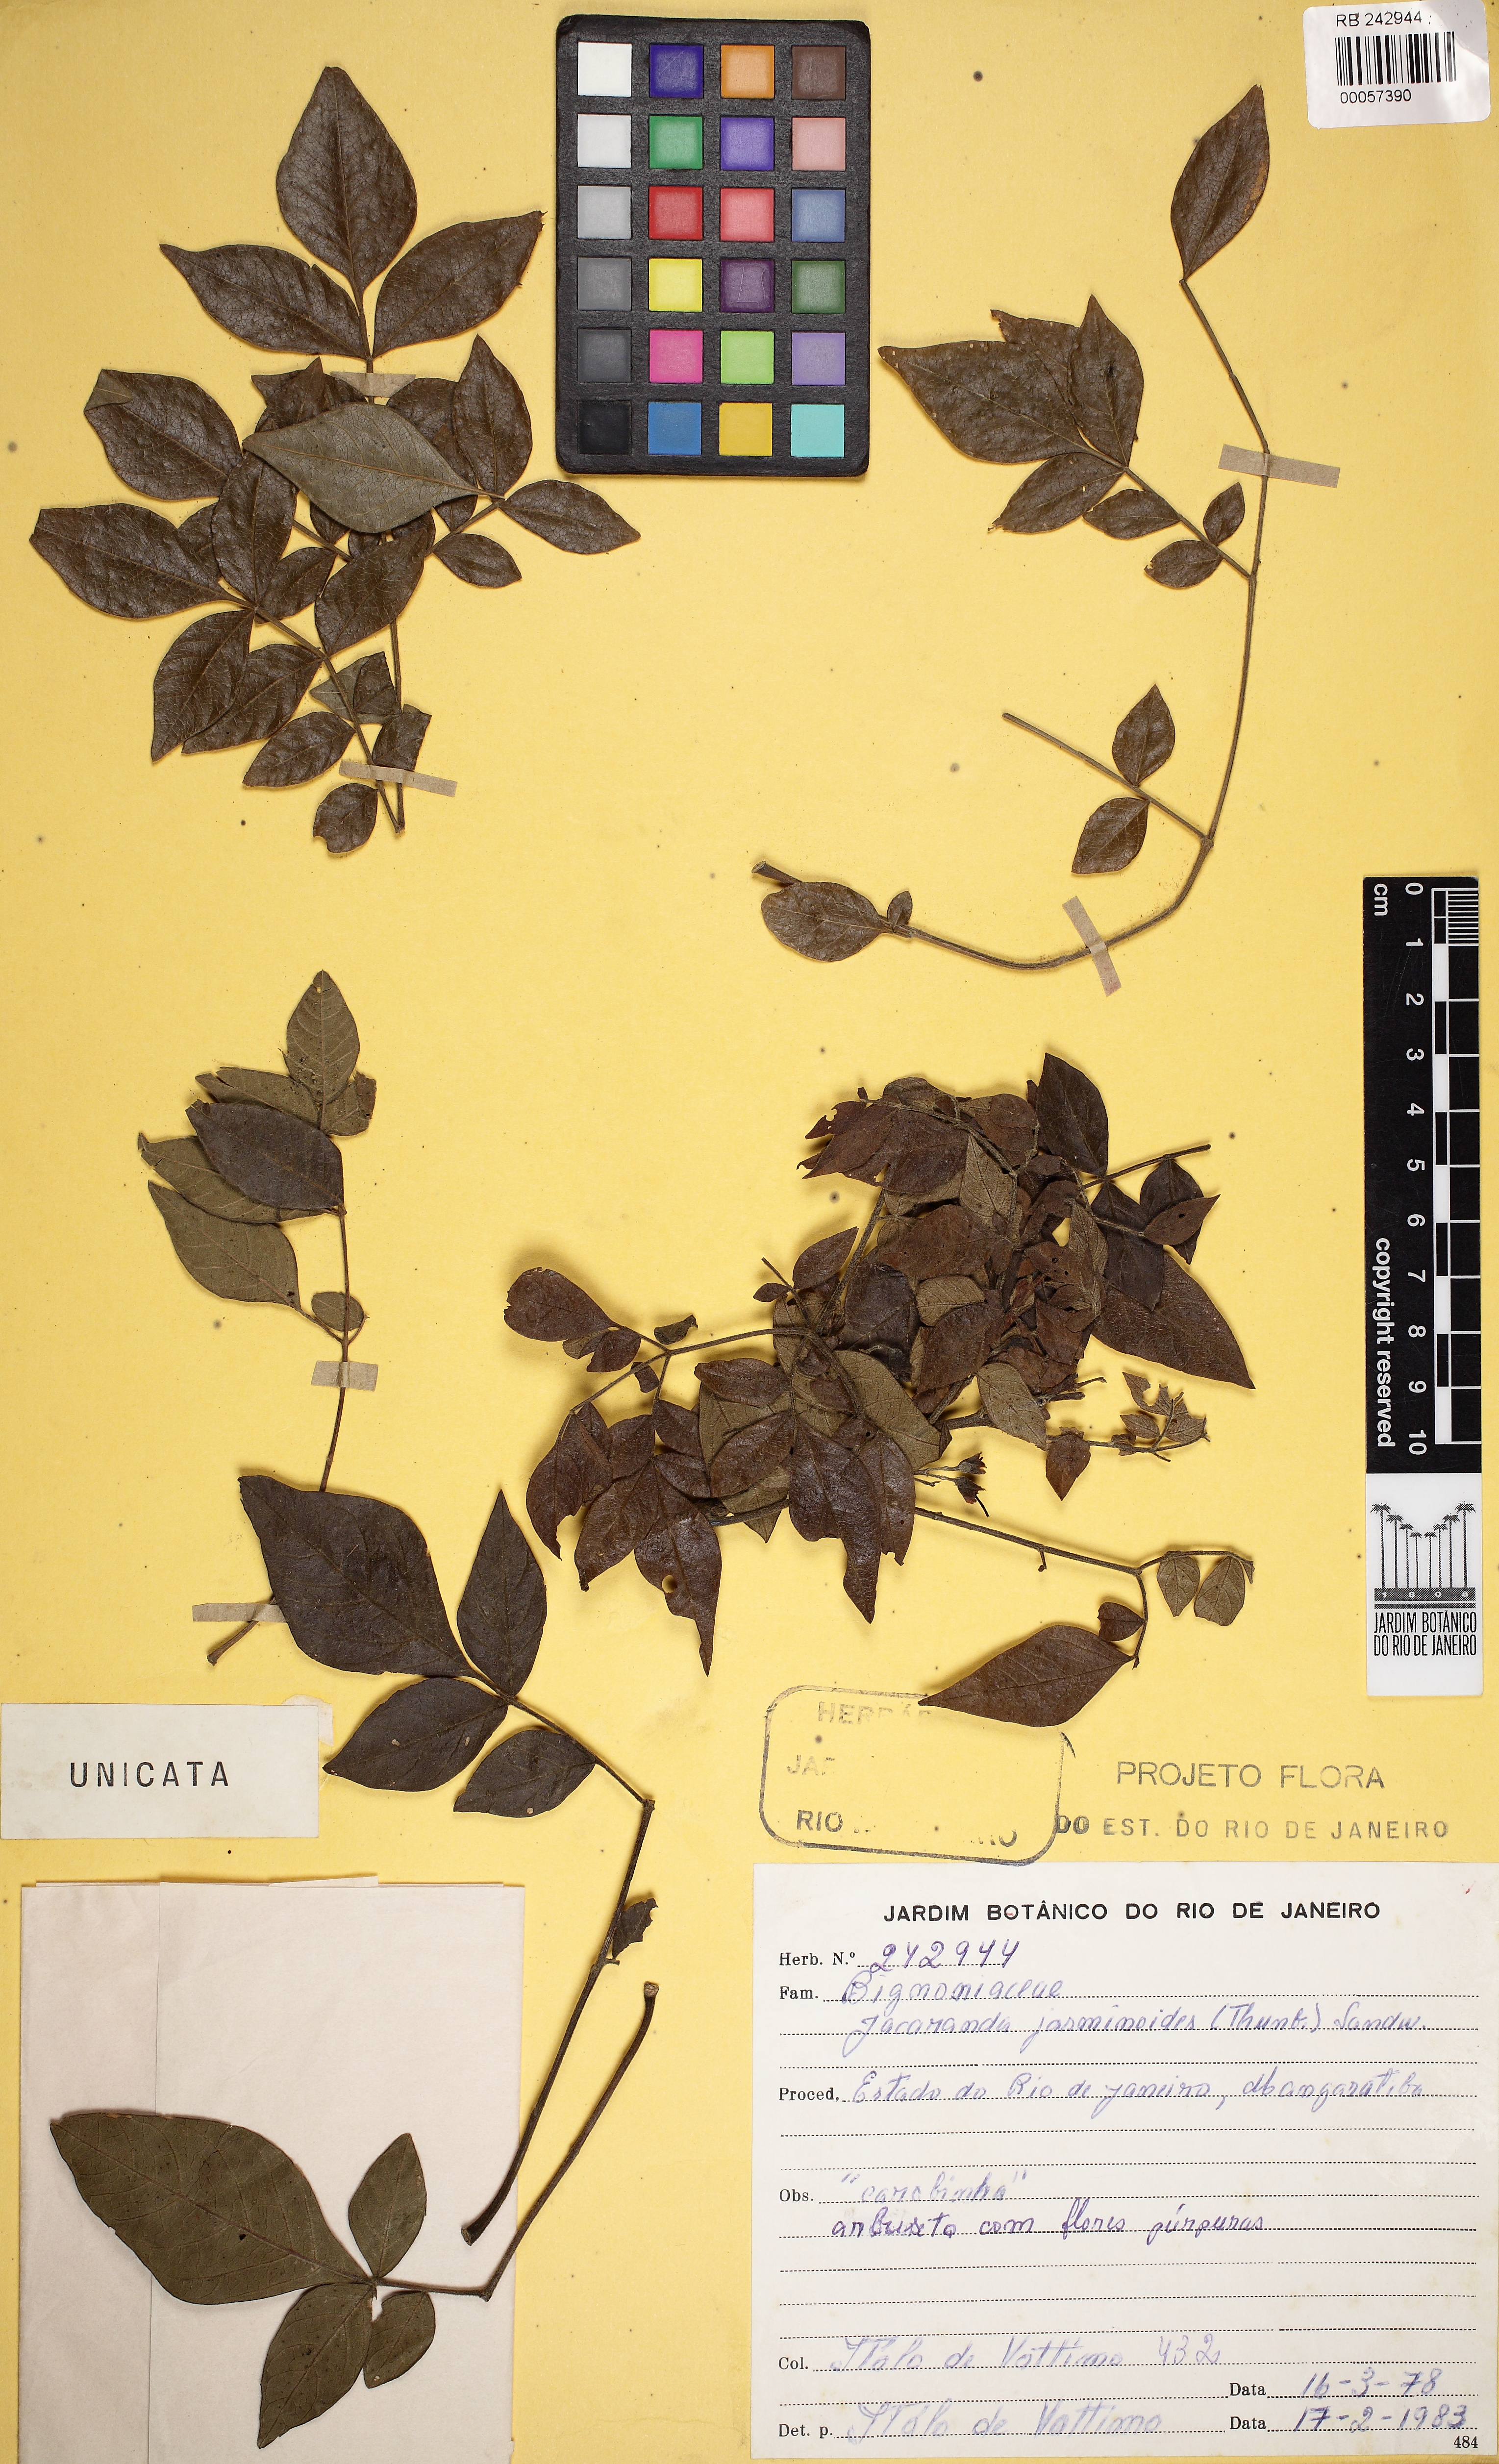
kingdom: Plantae
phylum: Tracheophyta
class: Magnoliopsida
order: Lamiales
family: Bignoniaceae
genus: Jacaranda
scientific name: Jacaranda jasminoides
